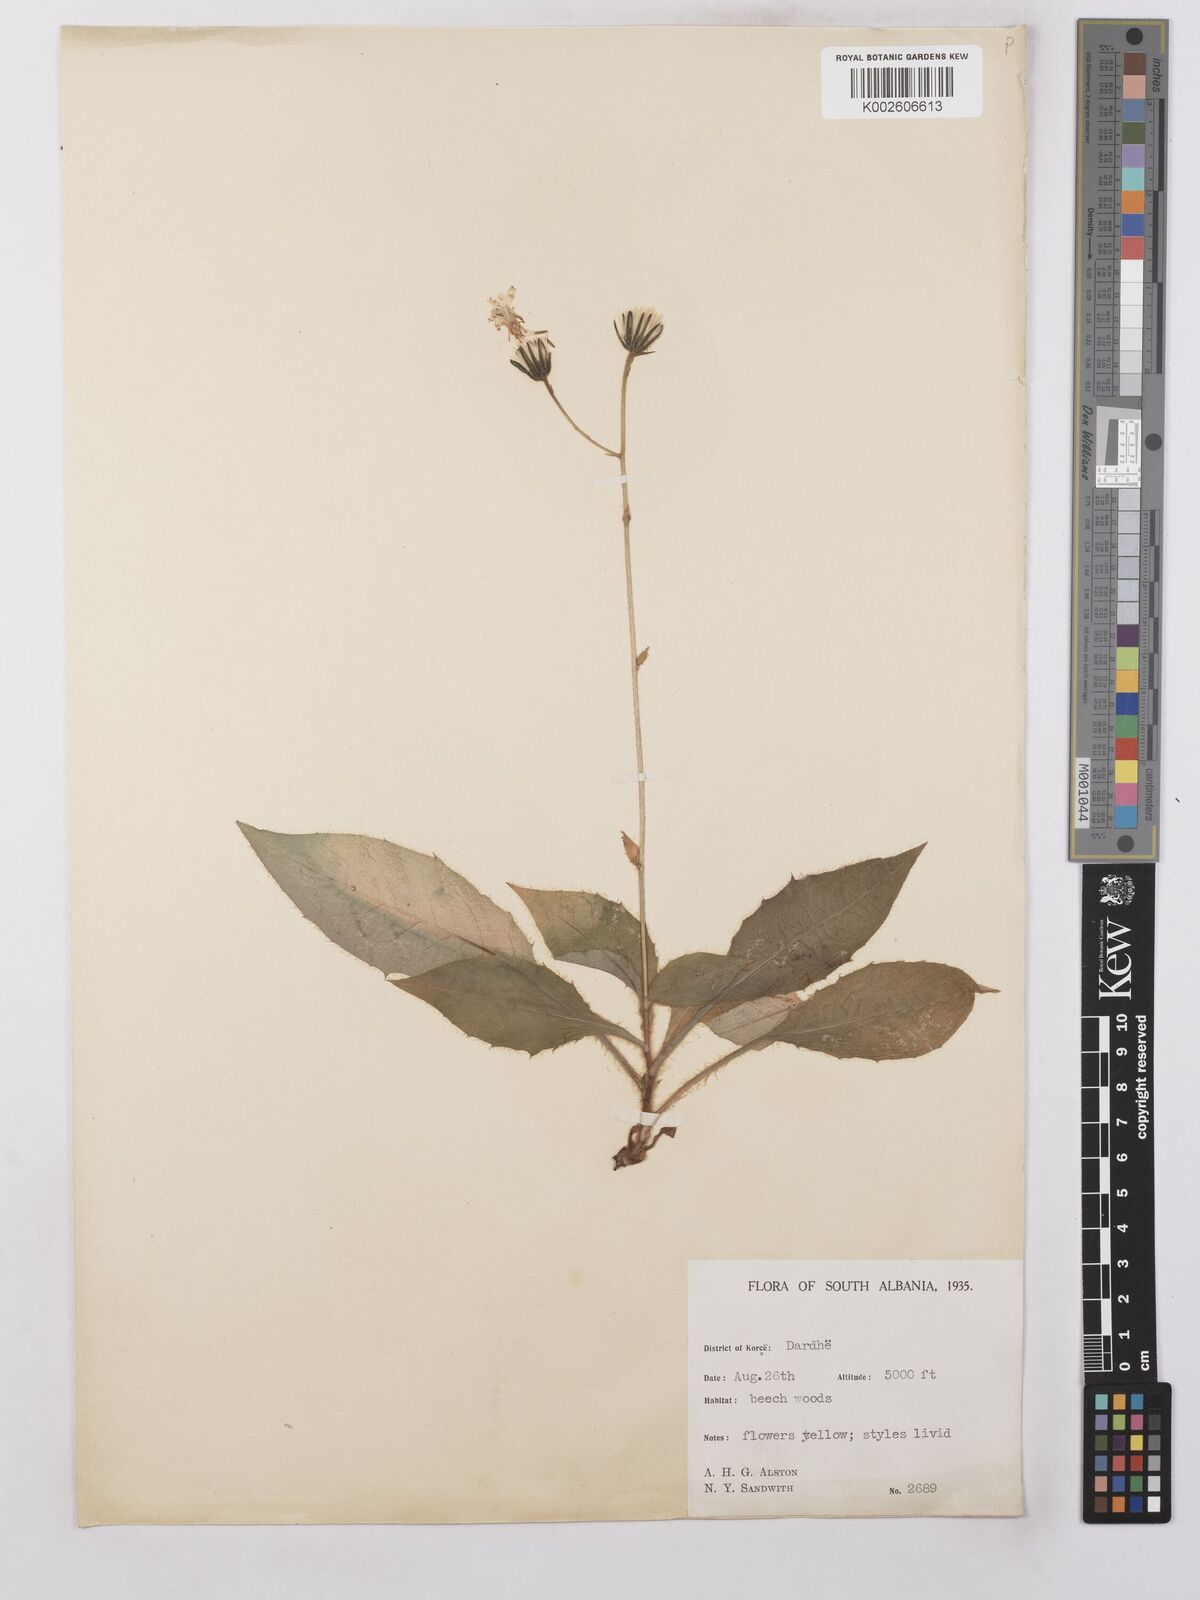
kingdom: Plantae
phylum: Tracheophyta
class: Magnoliopsida
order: Asterales
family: Asteraceae
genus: Hieracium
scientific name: Hieracium lachenalii
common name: Common hawkweed
